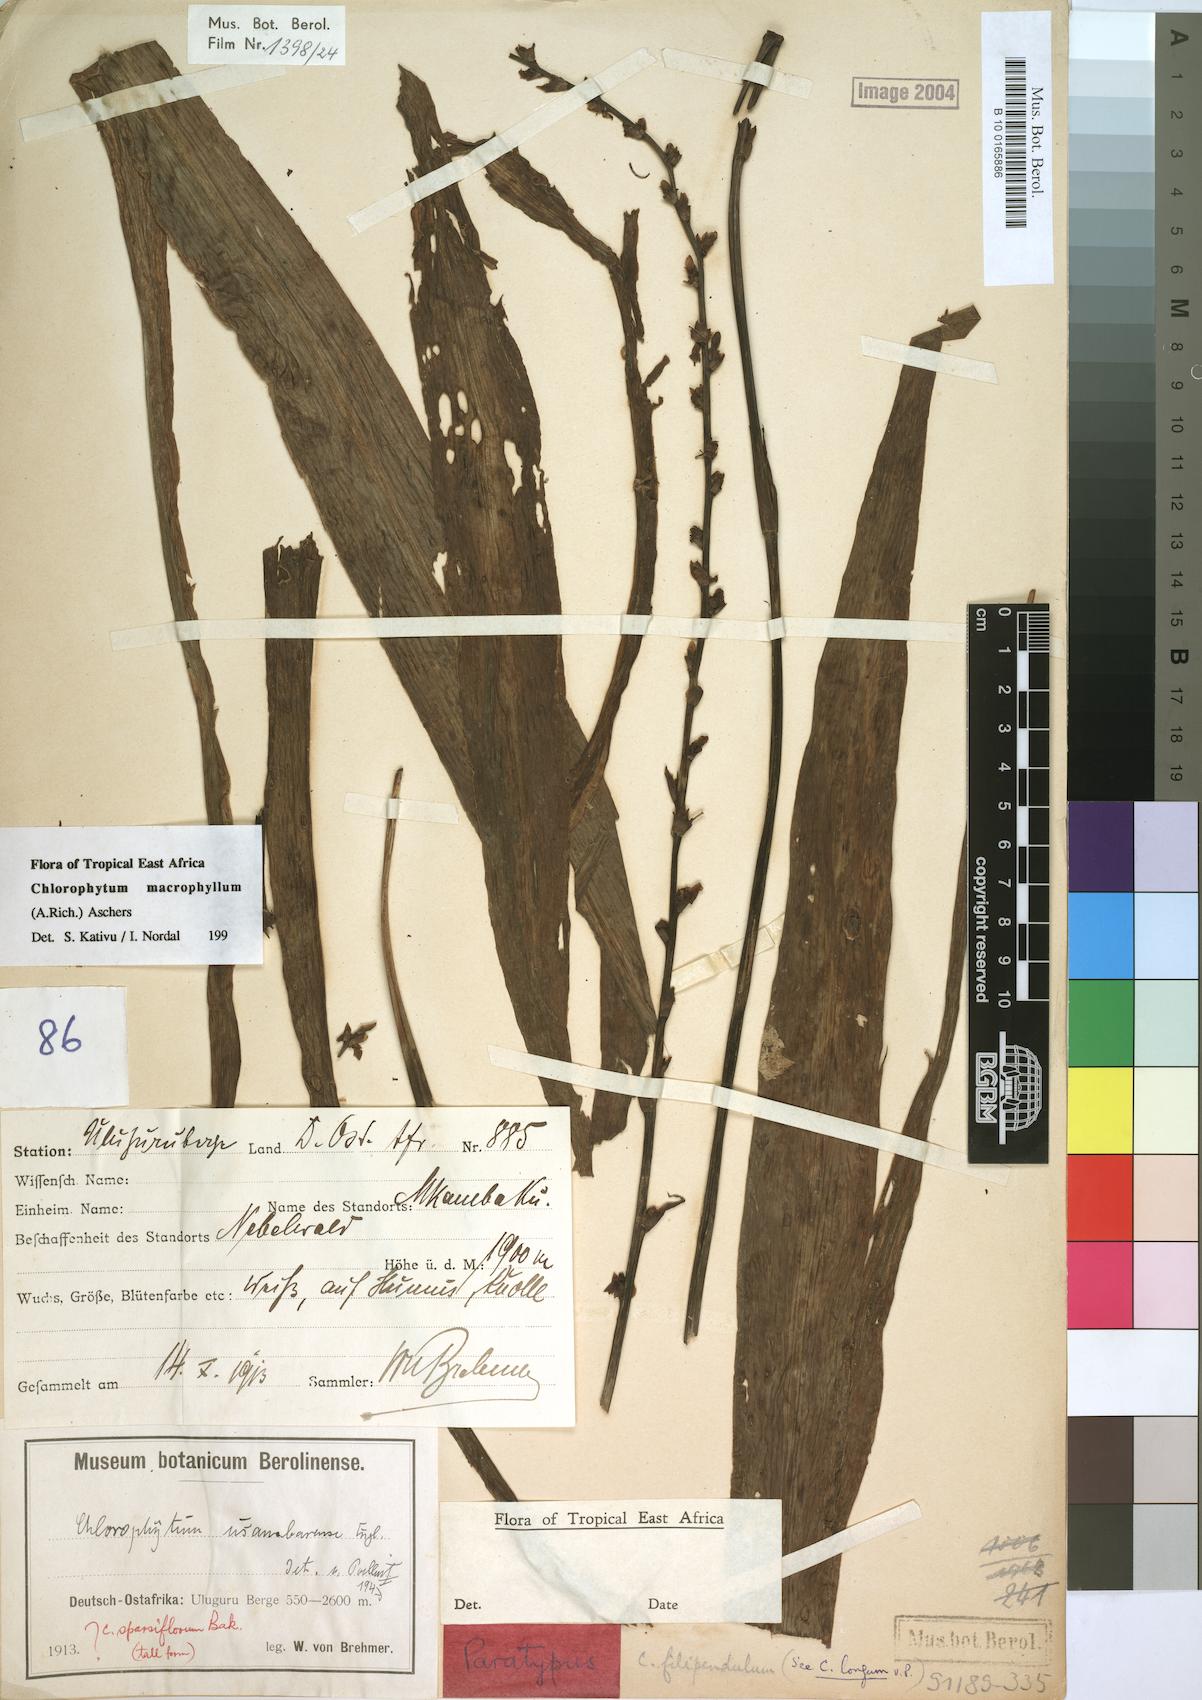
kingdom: Plantae
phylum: Tracheophyta
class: Liliopsida
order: Asparagales
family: Asparagaceae
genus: Chlorophytum
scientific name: Chlorophytum macrophyllum
